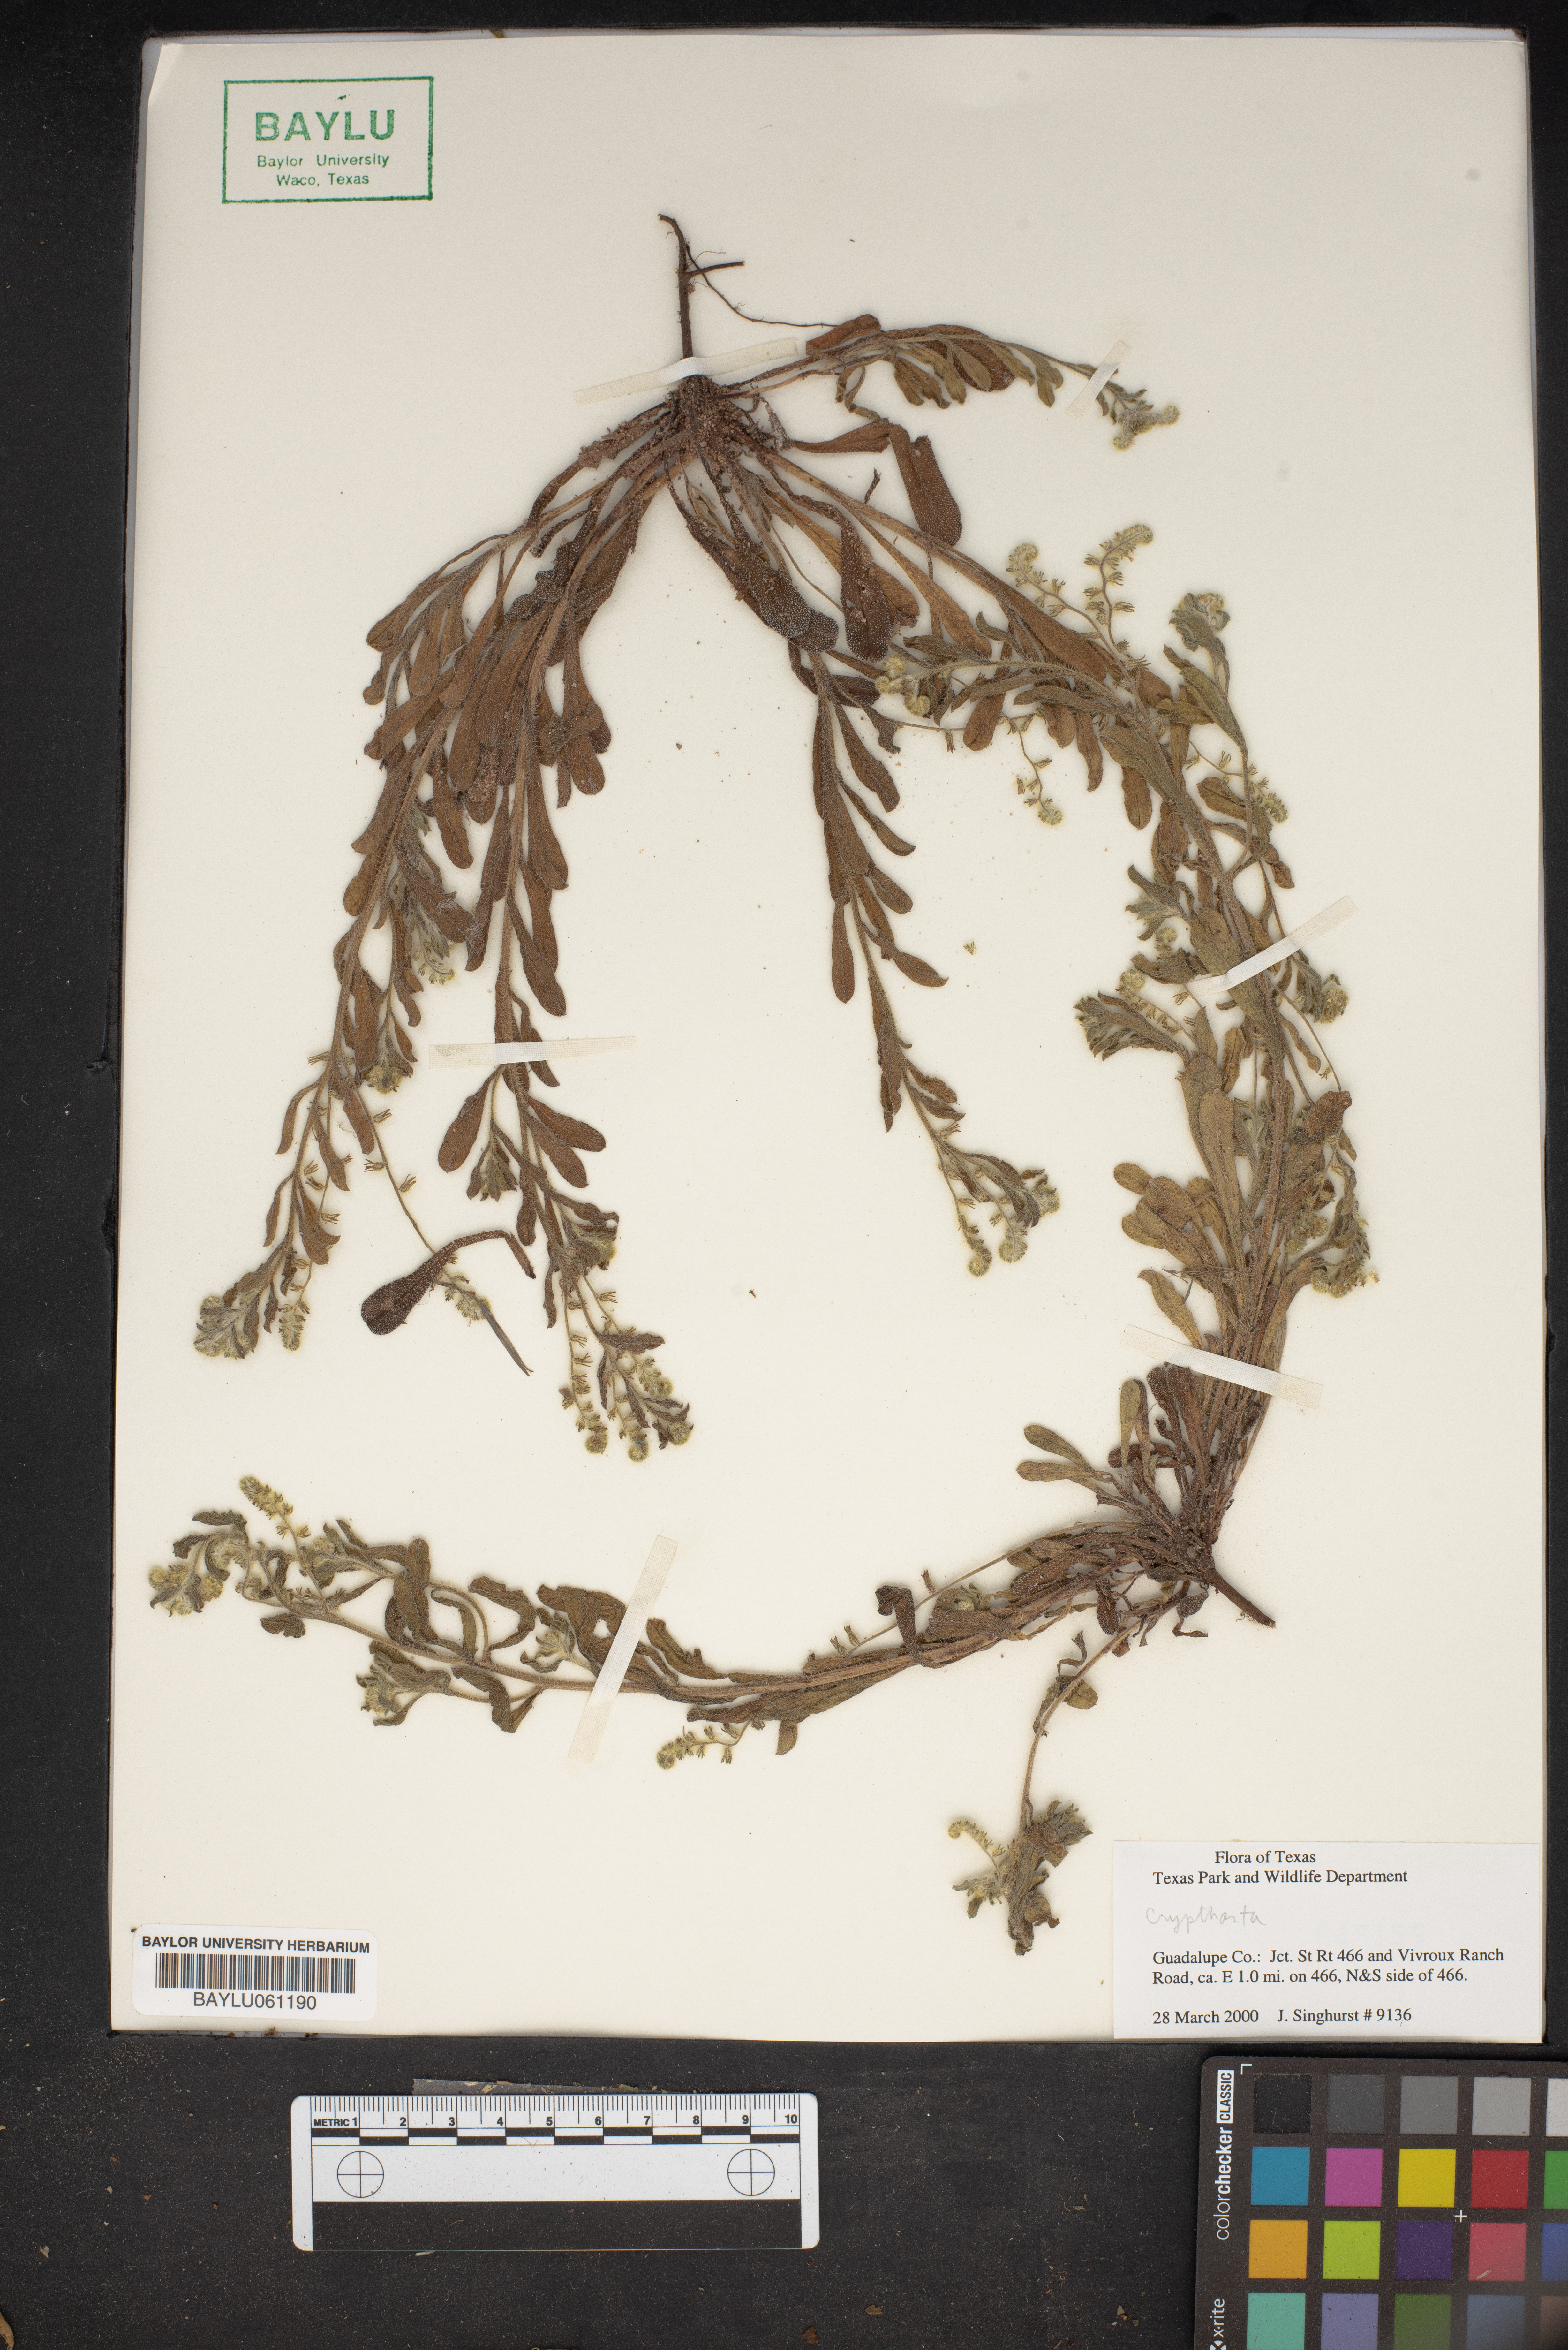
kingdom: Plantae
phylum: Tracheophyta
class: Magnoliopsida
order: Rosales
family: Rhamnaceae
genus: Cryptandra
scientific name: Cryptandra
